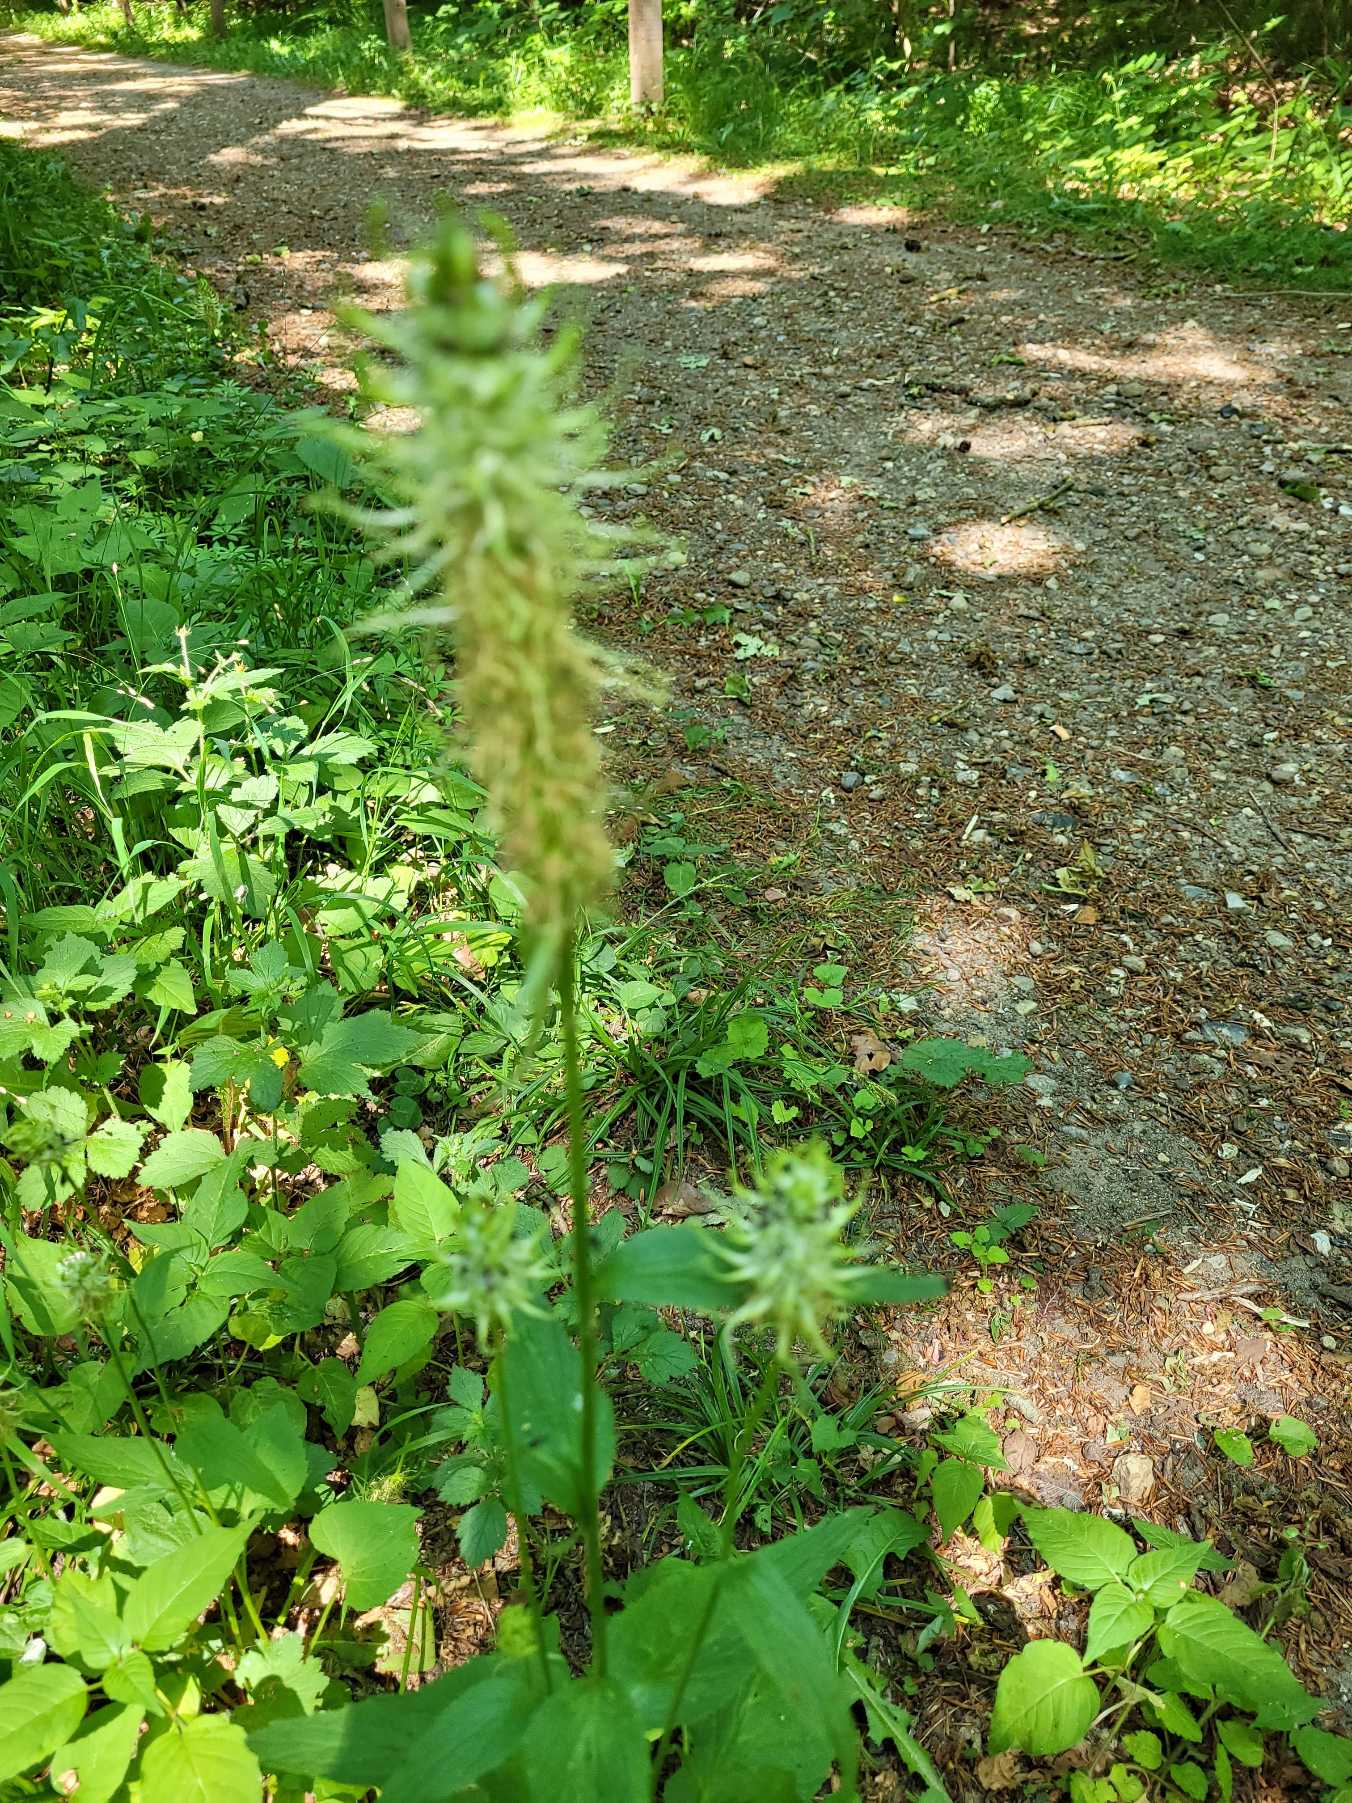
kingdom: Plantae
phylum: Tracheophyta
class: Magnoliopsida
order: Asterales
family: Campanulaceae
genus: Phyteuma
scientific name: Phyteuma spicatum
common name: Aks-rapunsel
